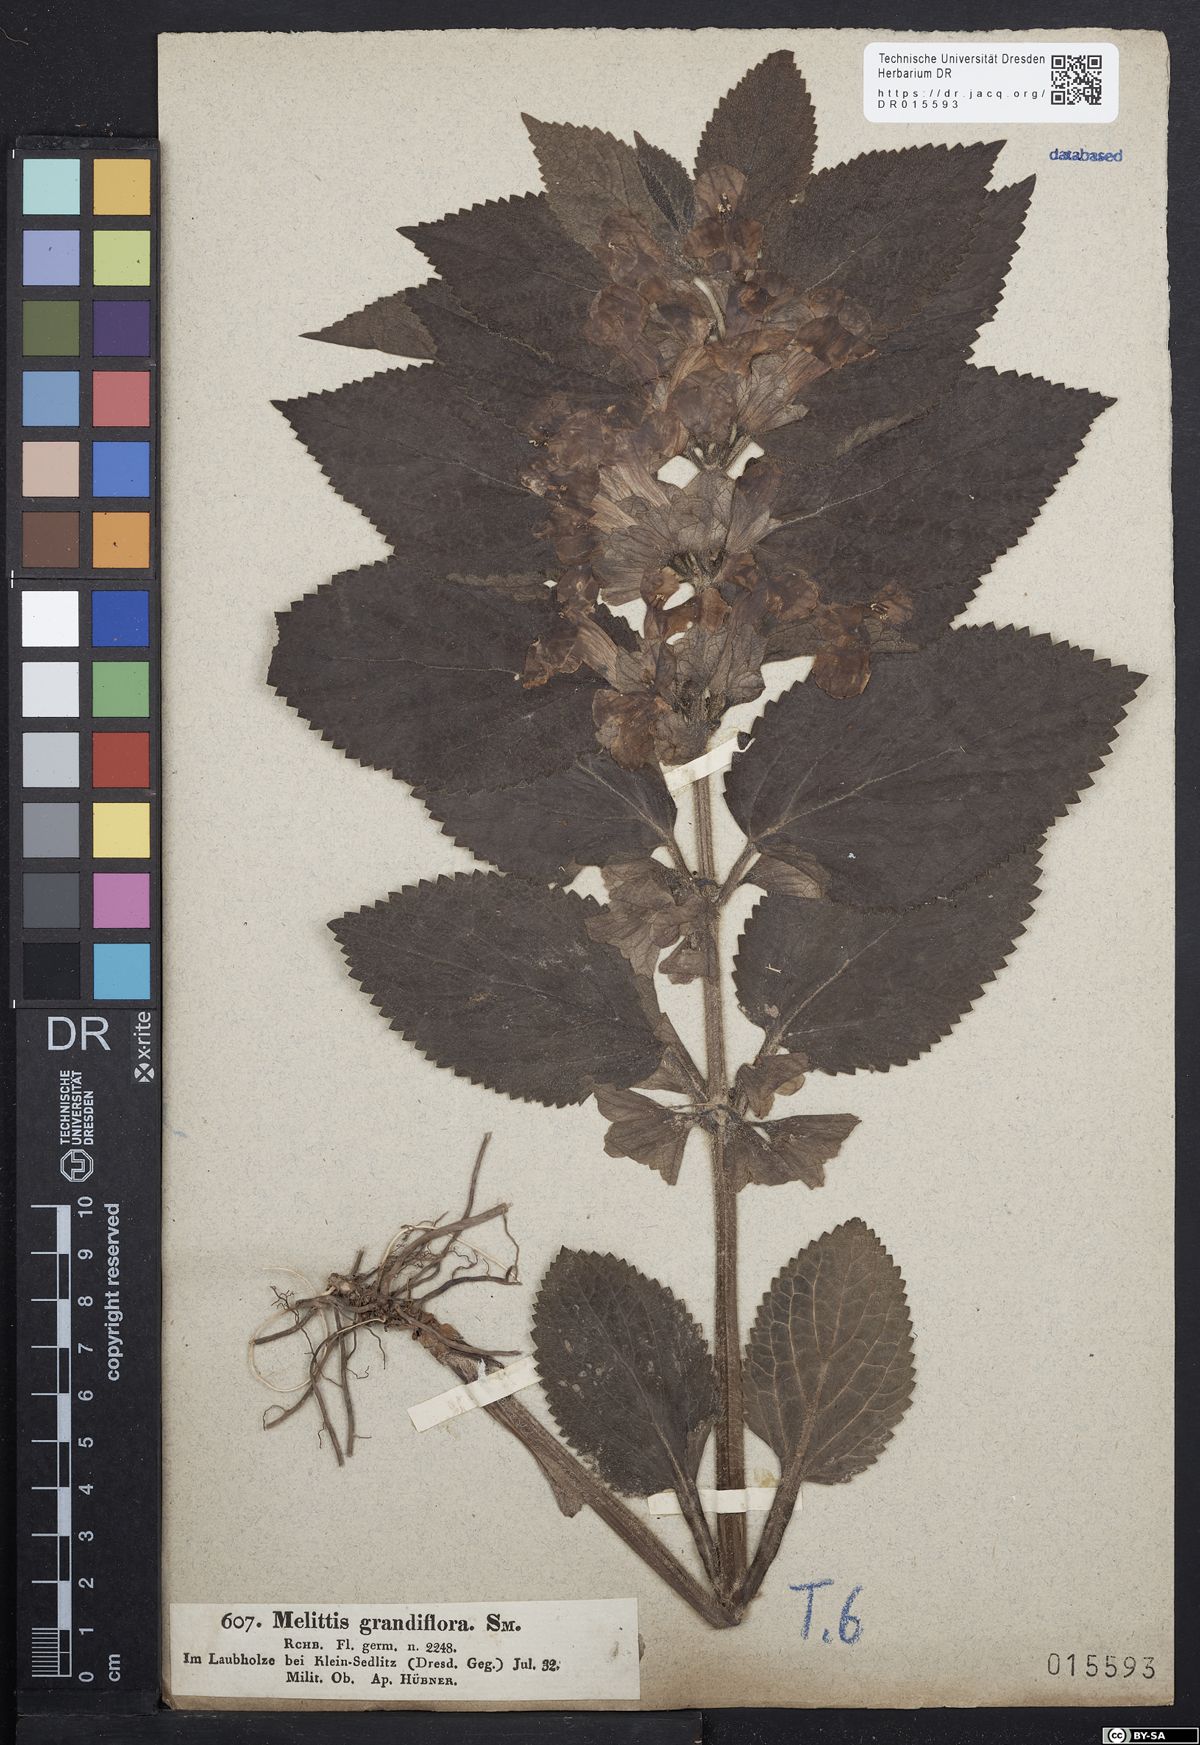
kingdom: Plantae
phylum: Tracheophyta
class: Magnoliopsida
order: Lamiales
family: Lamiaceae
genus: Melittis
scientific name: Melittis melissophyllum
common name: Bastard balm
